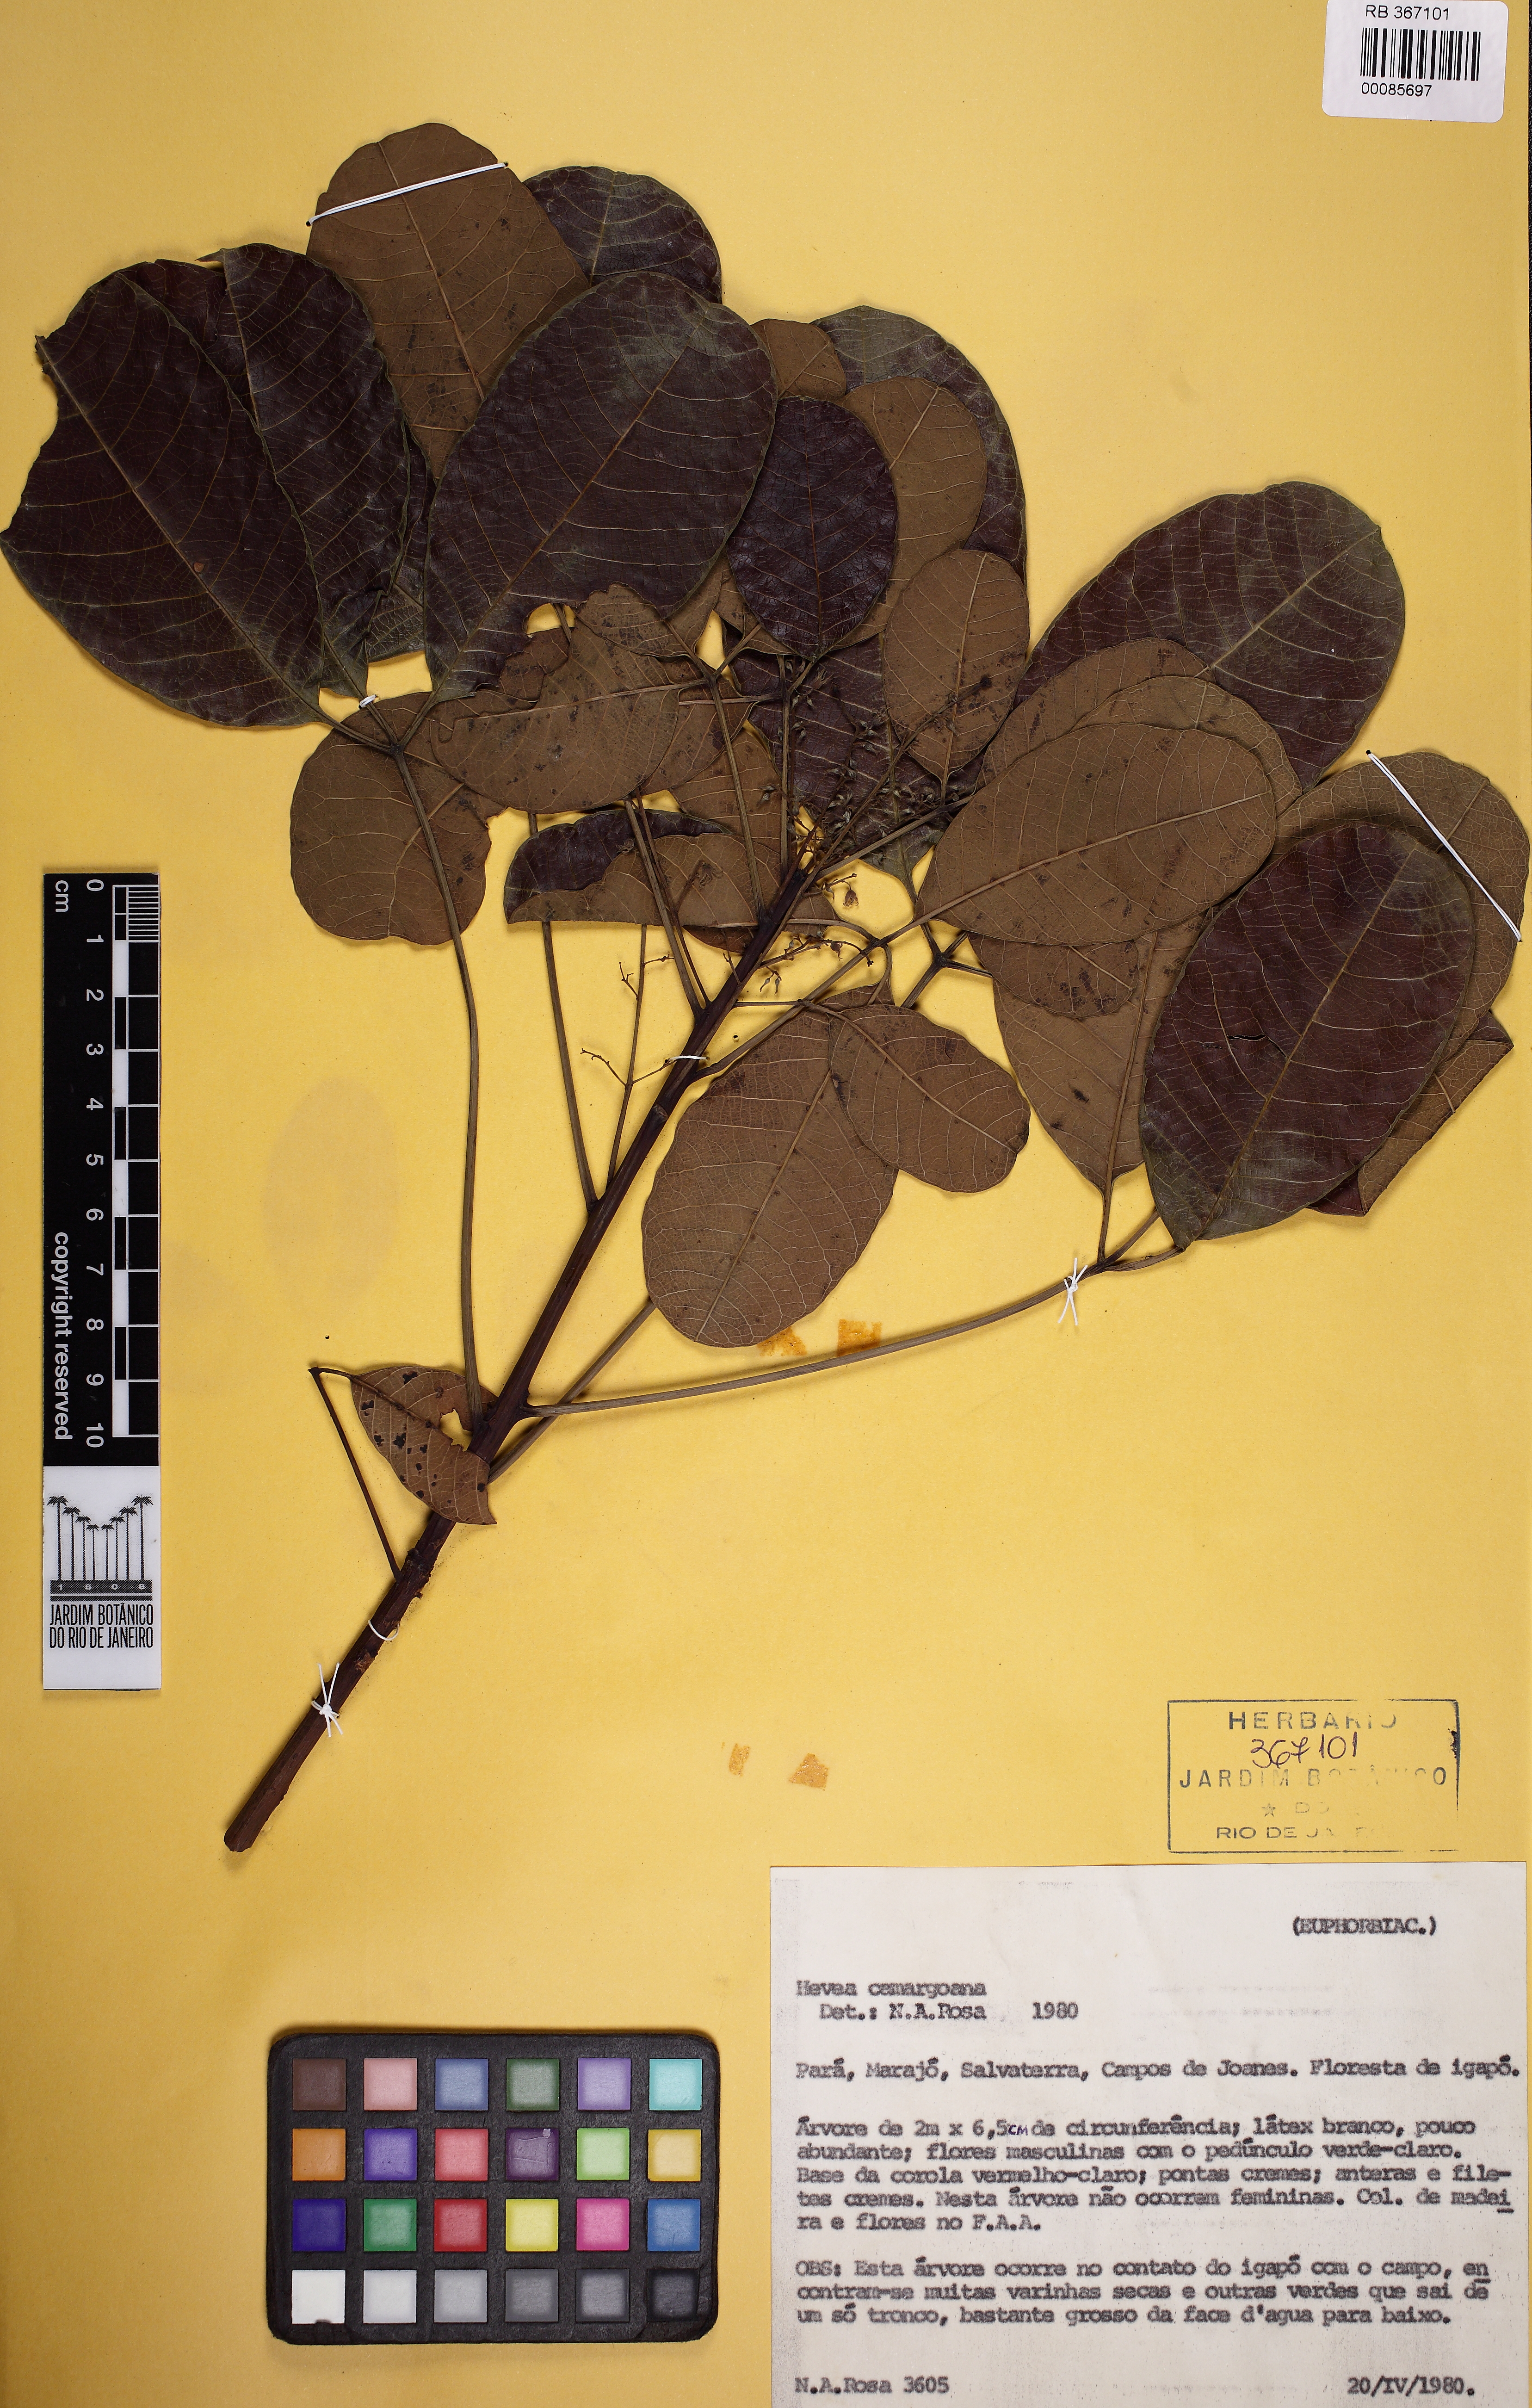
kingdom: Plantae
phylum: Tracheophyta
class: Magnoliopsida
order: Malpighiales
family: Euphorbiaceae
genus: Hevea
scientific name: Hevea camargoana
